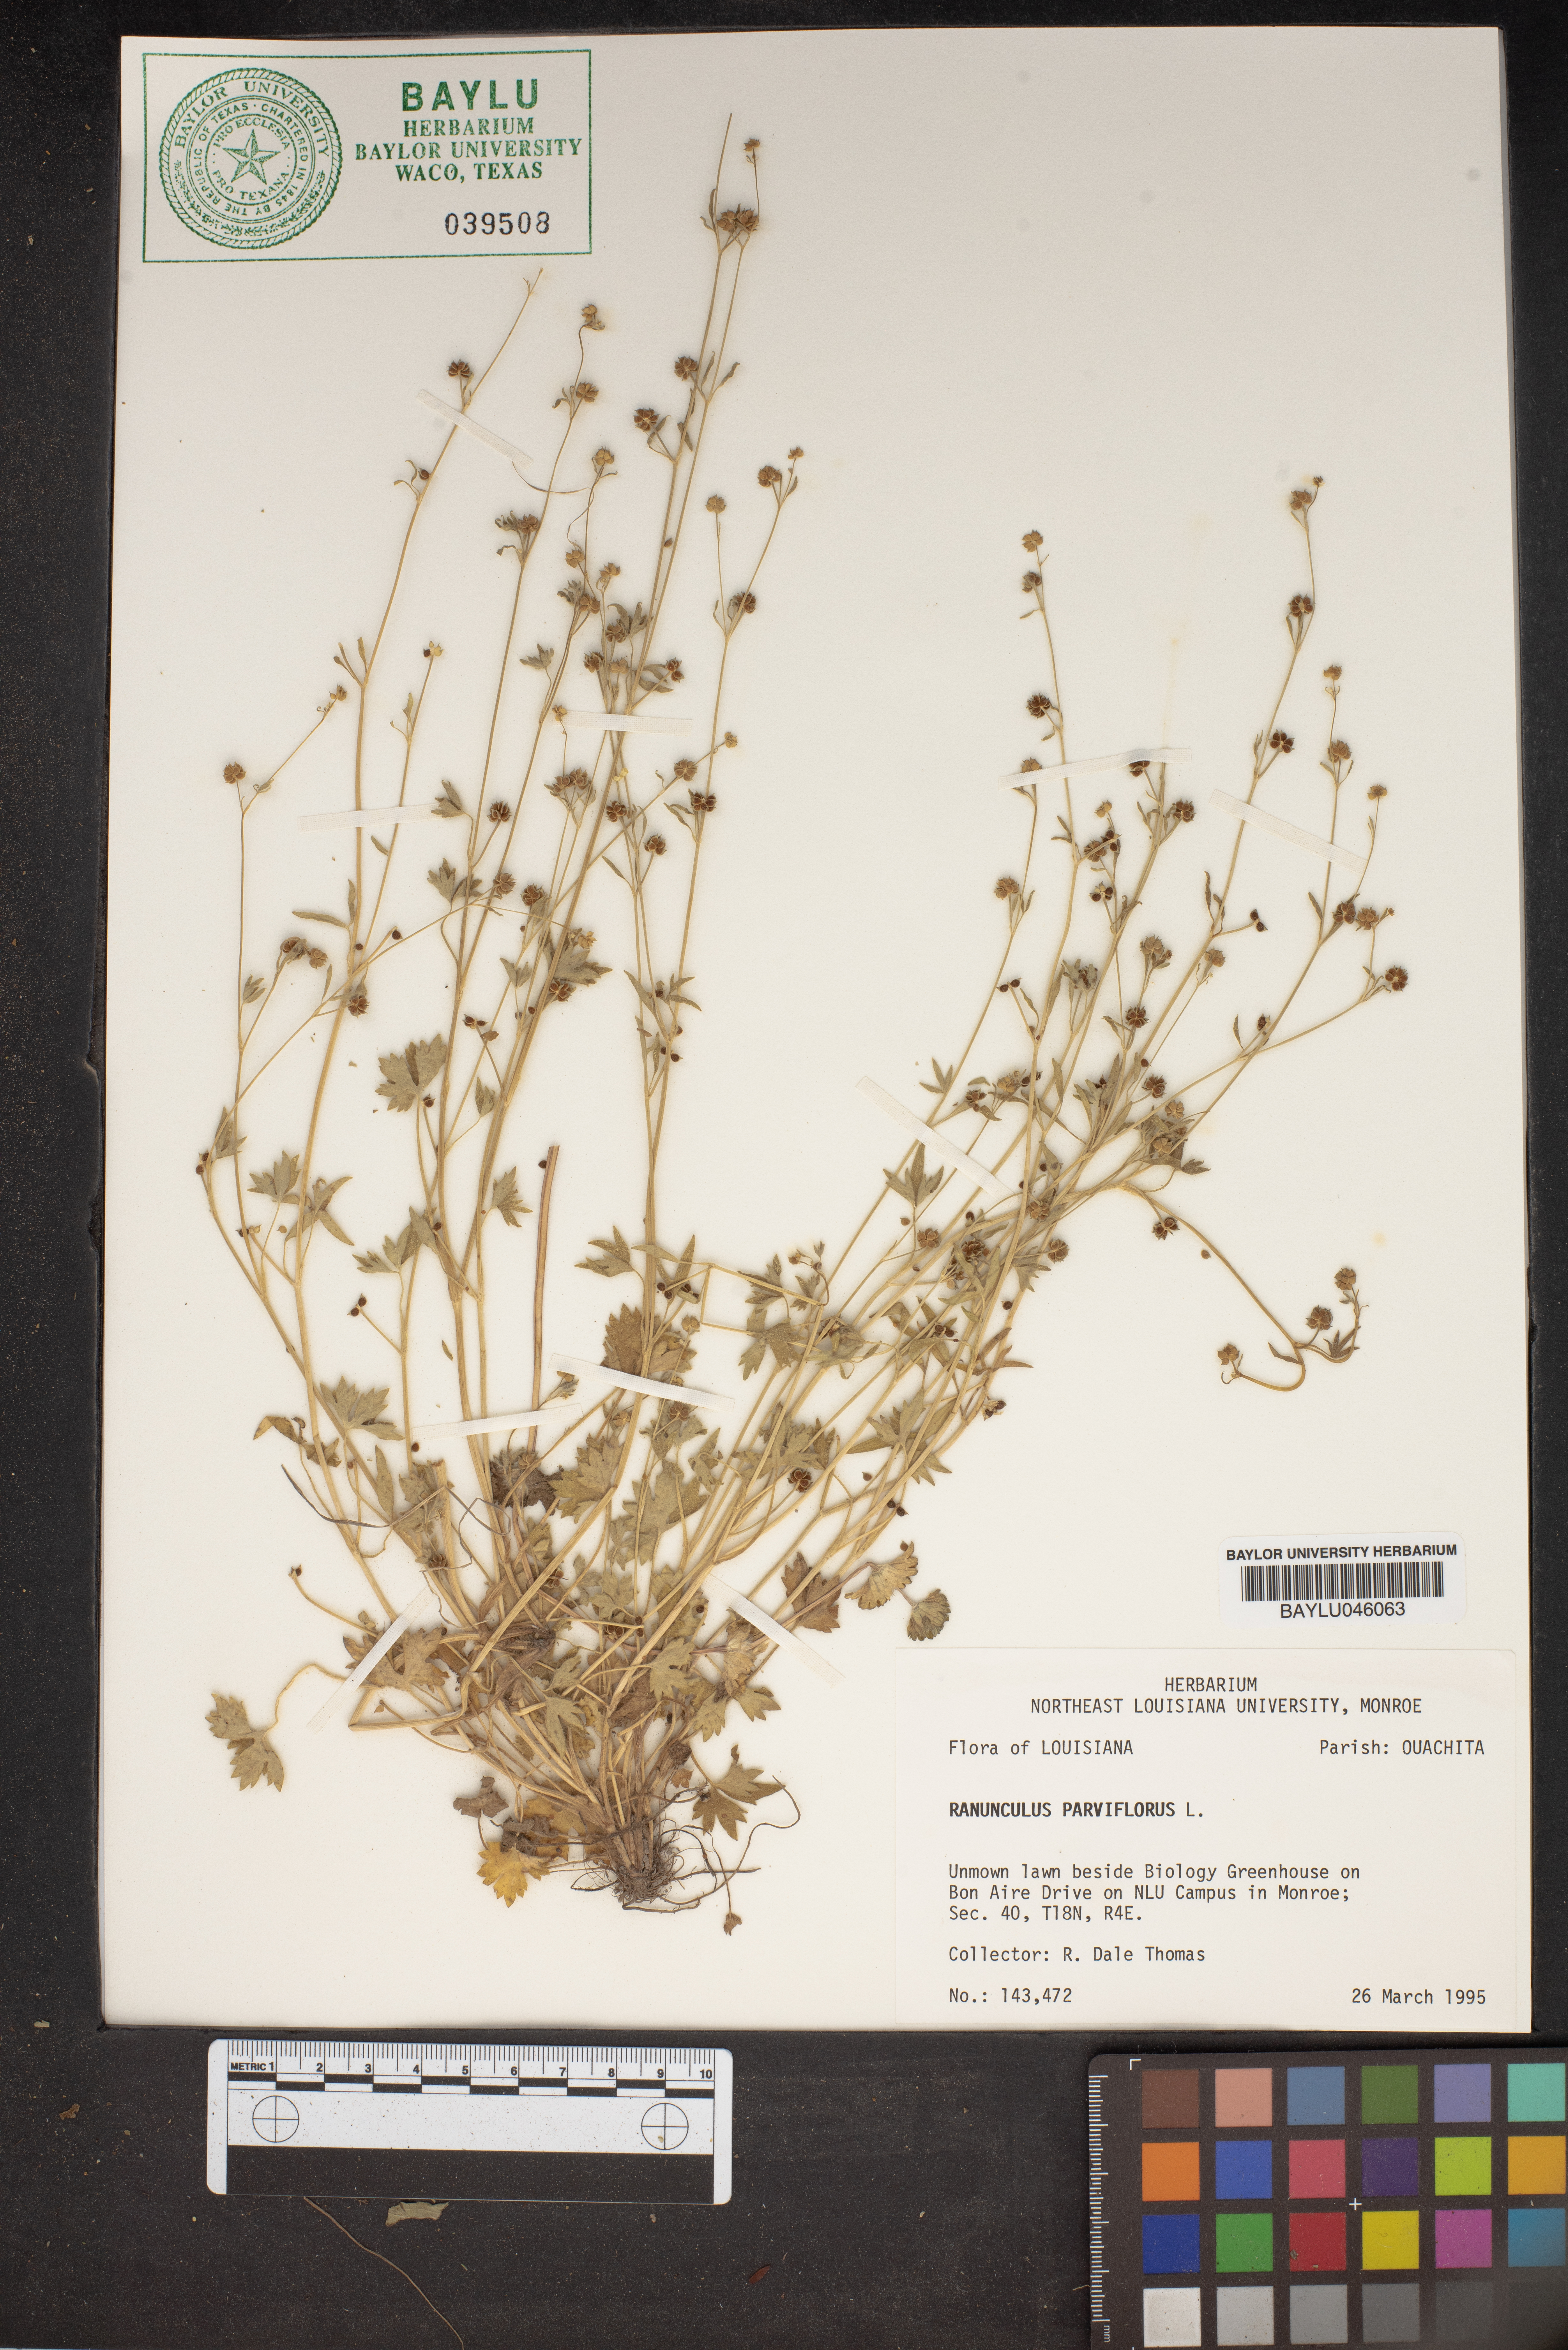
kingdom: Plantae
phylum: Tracheophyta
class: Magnoliopsida
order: Ranunculales
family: Ranunculaceae
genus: Ranunculus
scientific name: Ranunculus parviflorus
